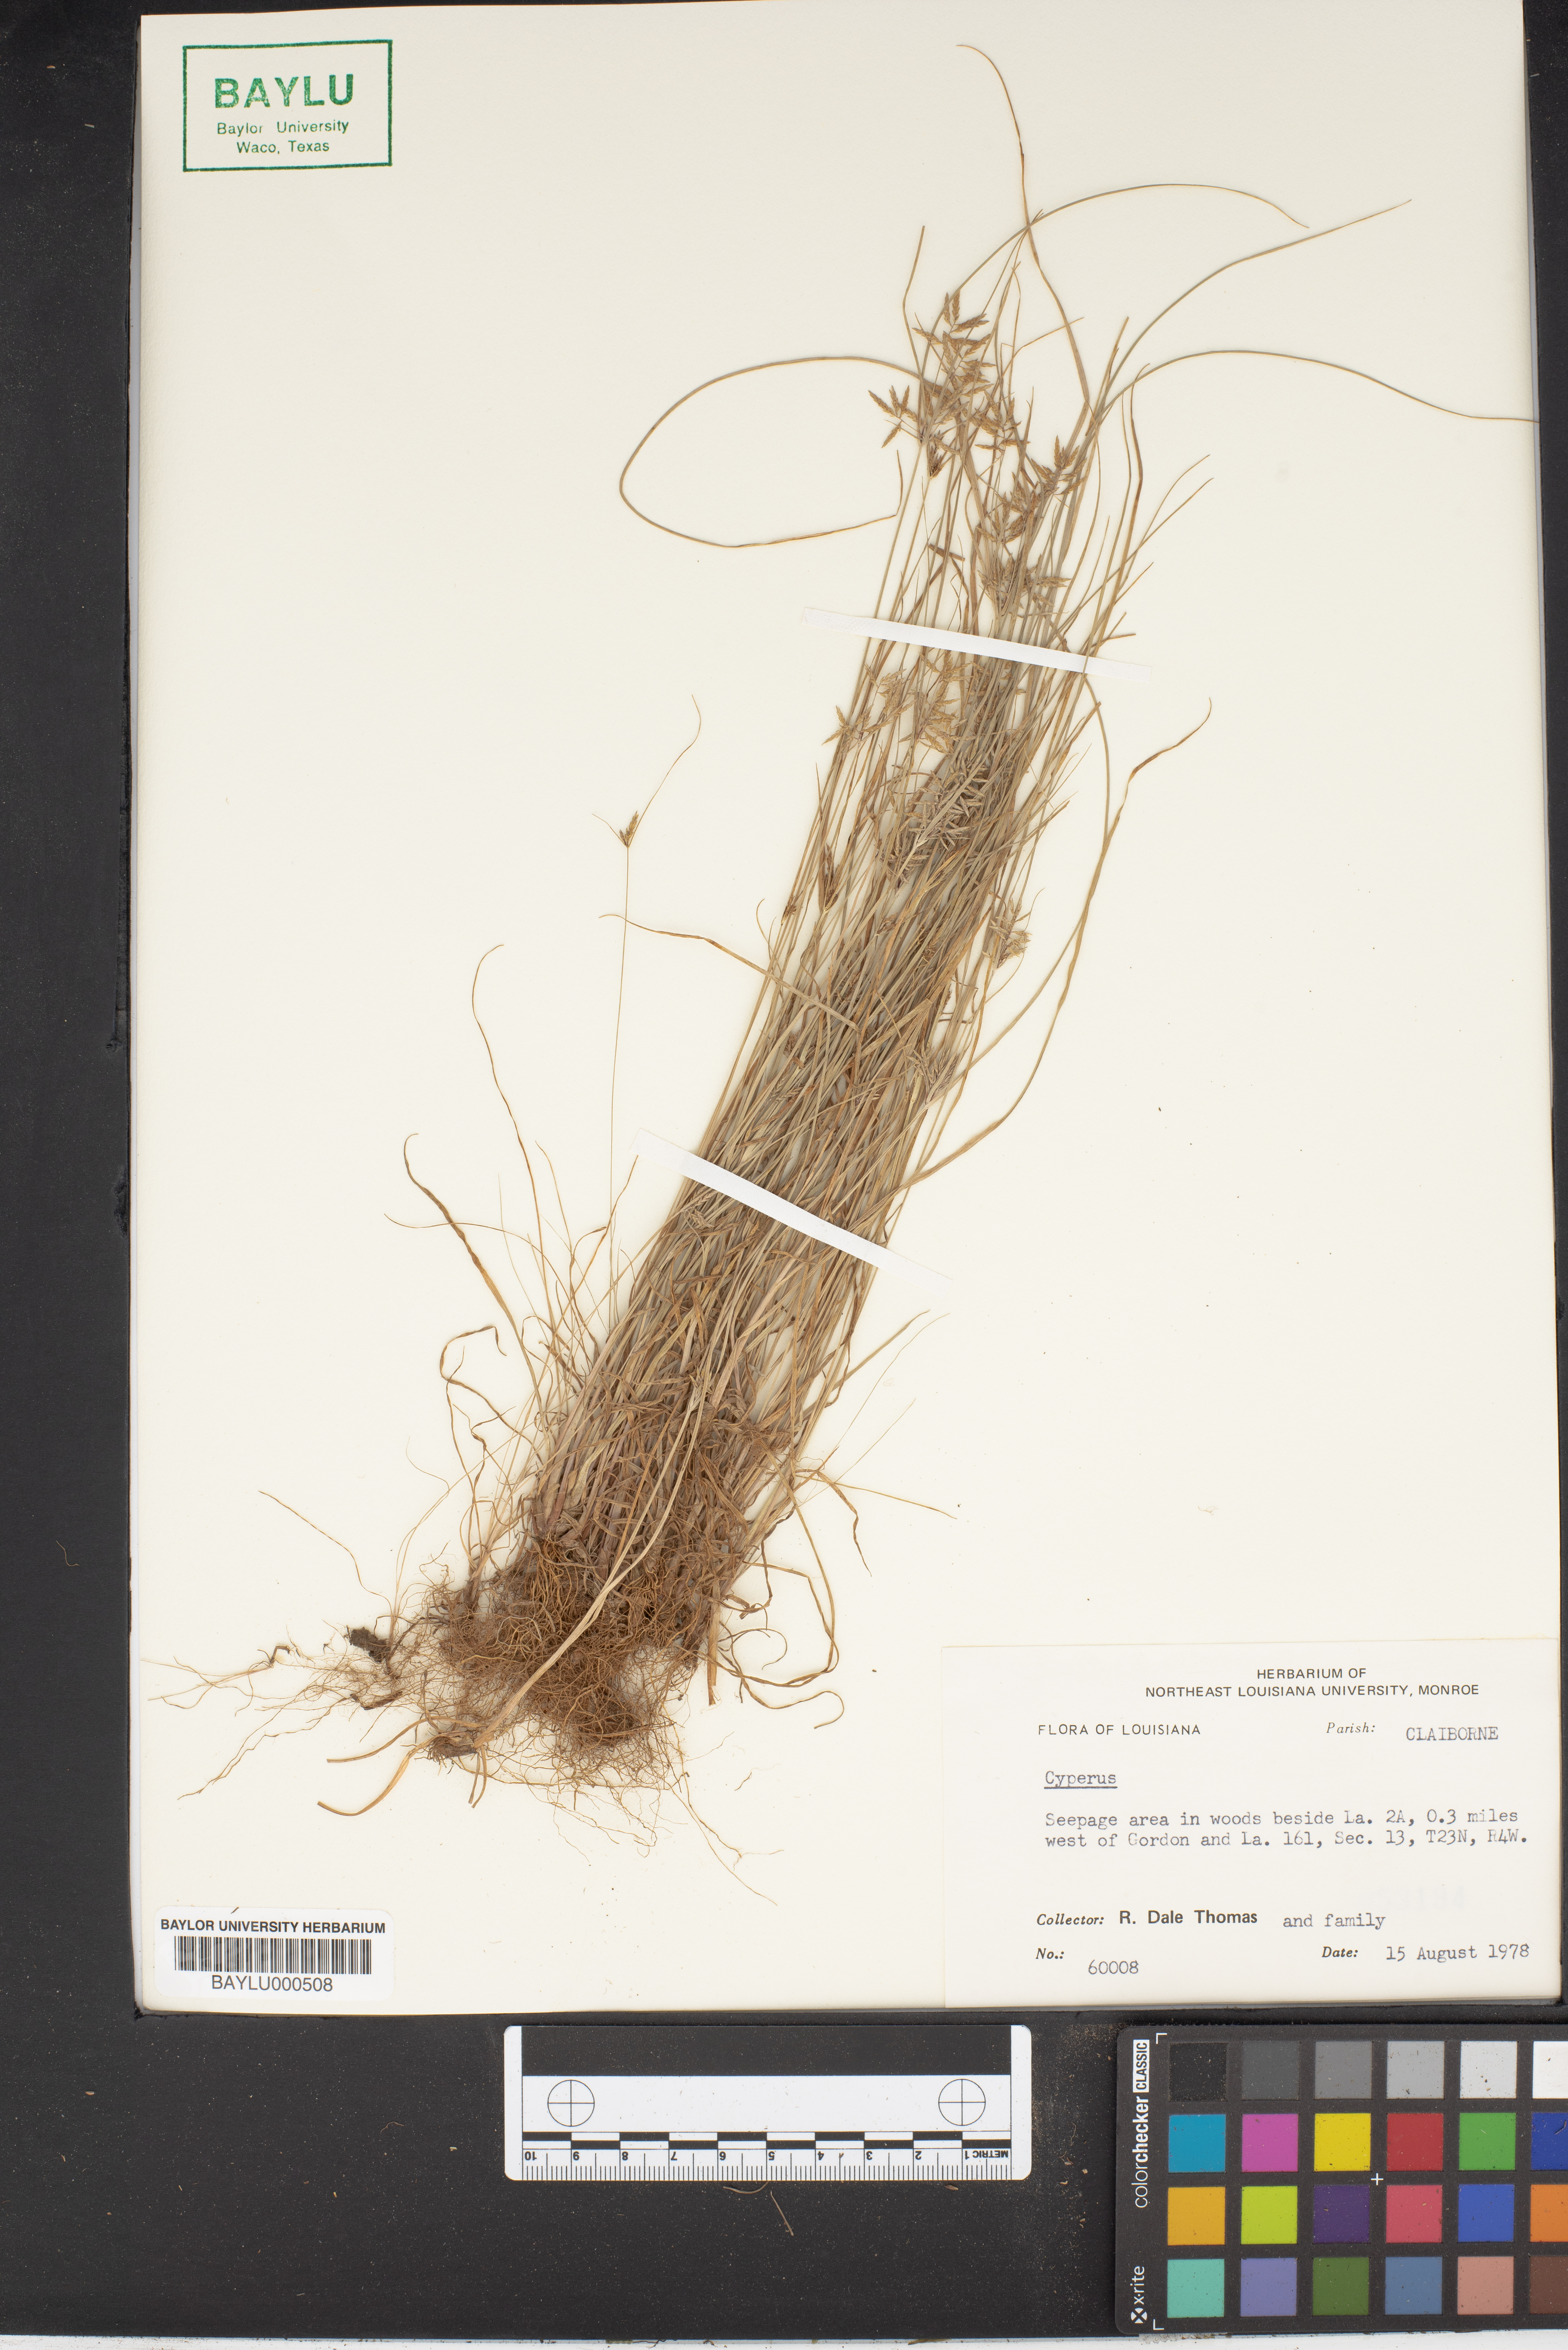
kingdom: Plantae
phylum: Tracheophyta
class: Liliopsida
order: Poales
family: Cyperaceae
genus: Cyperus
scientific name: Cyperus
